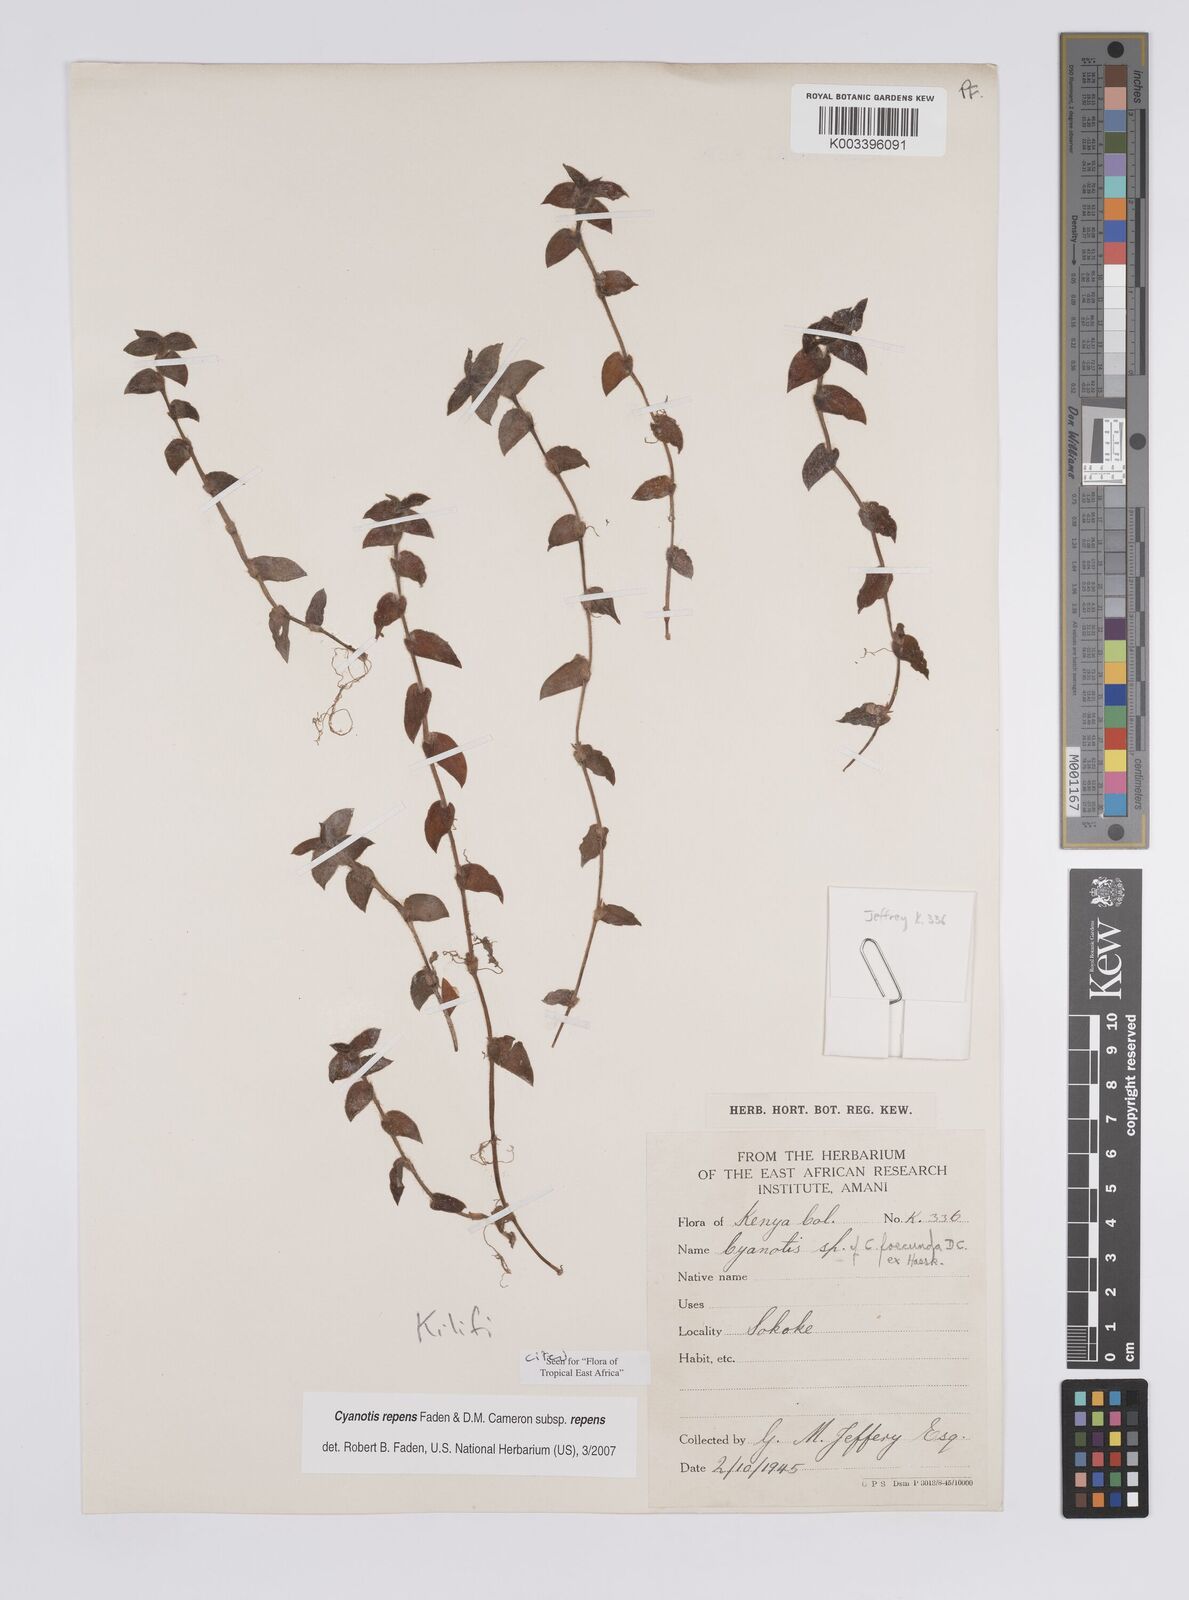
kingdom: Plantae
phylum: Tracheophyta
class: Liliopsida
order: Commelinales
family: Commelinaceae
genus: Cyanotis
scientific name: Cyanotis repens
